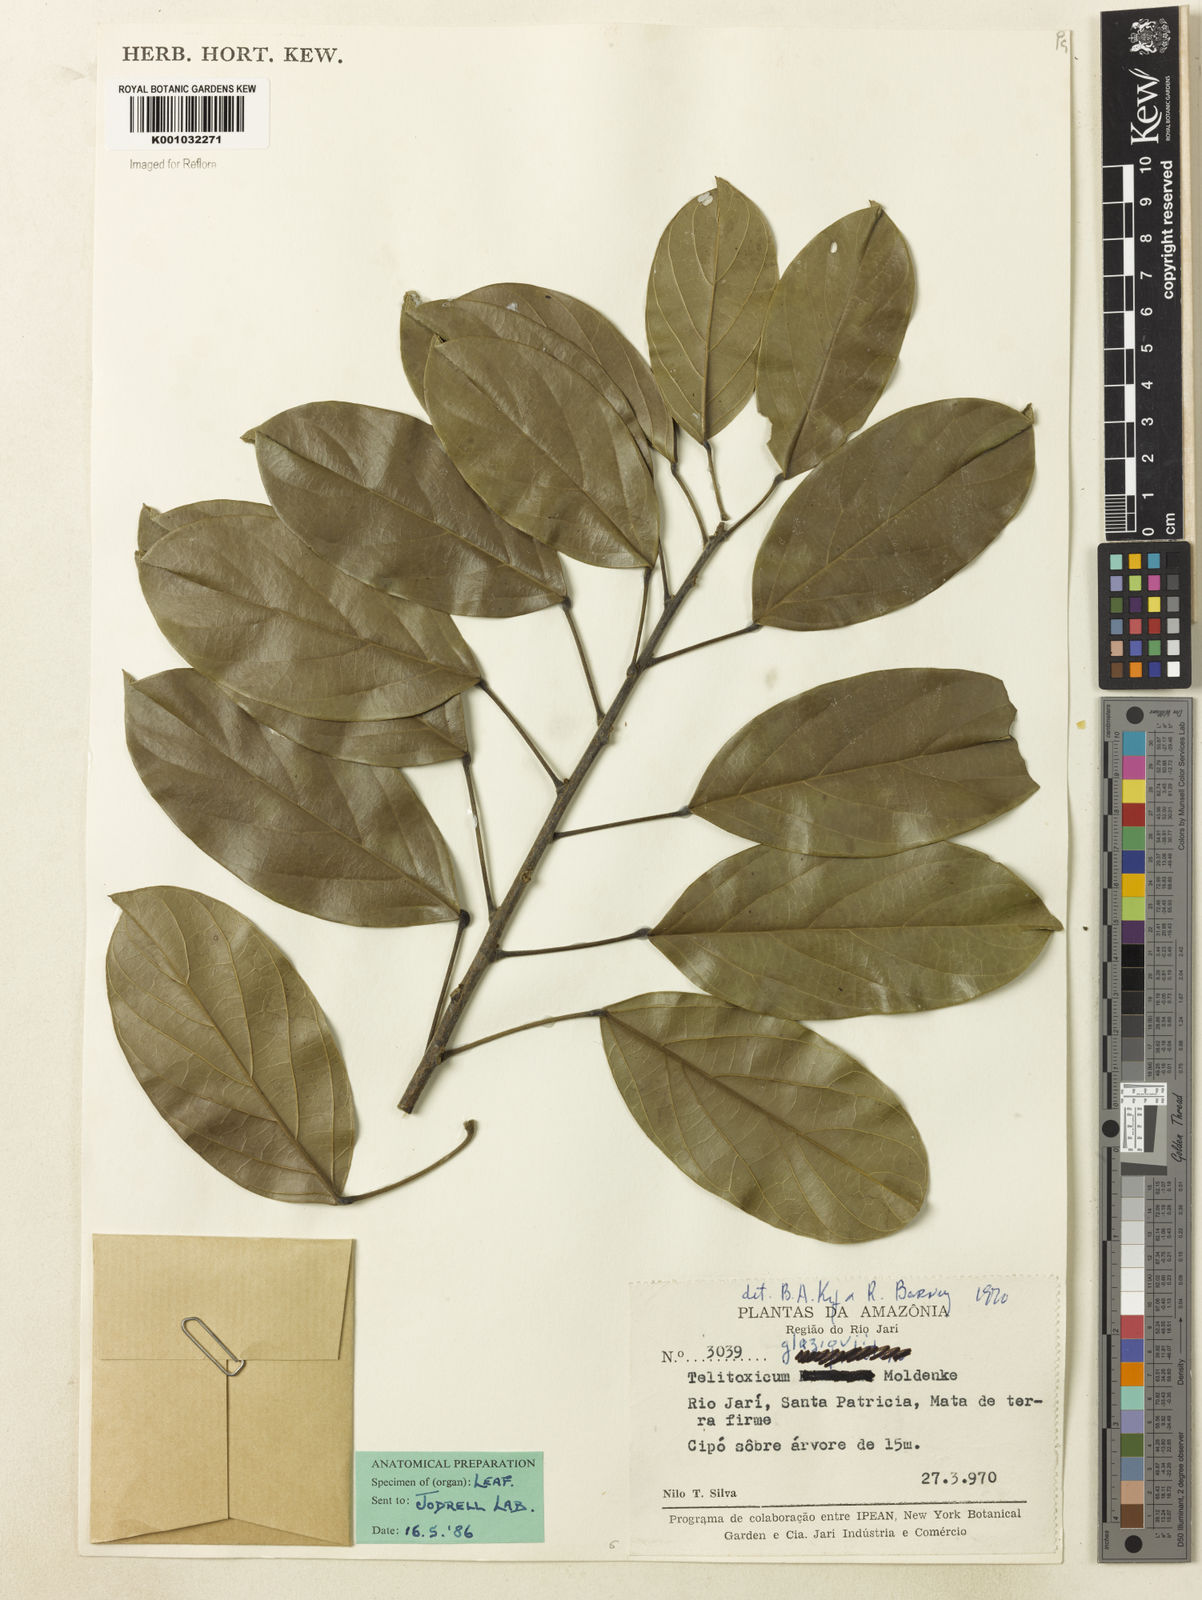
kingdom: Plantae
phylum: Tracheophyta
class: Magnoliopsida
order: Ranunculales
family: Menispermaceae
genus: Telitoxicum
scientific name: Telitoxicum glaziovii
